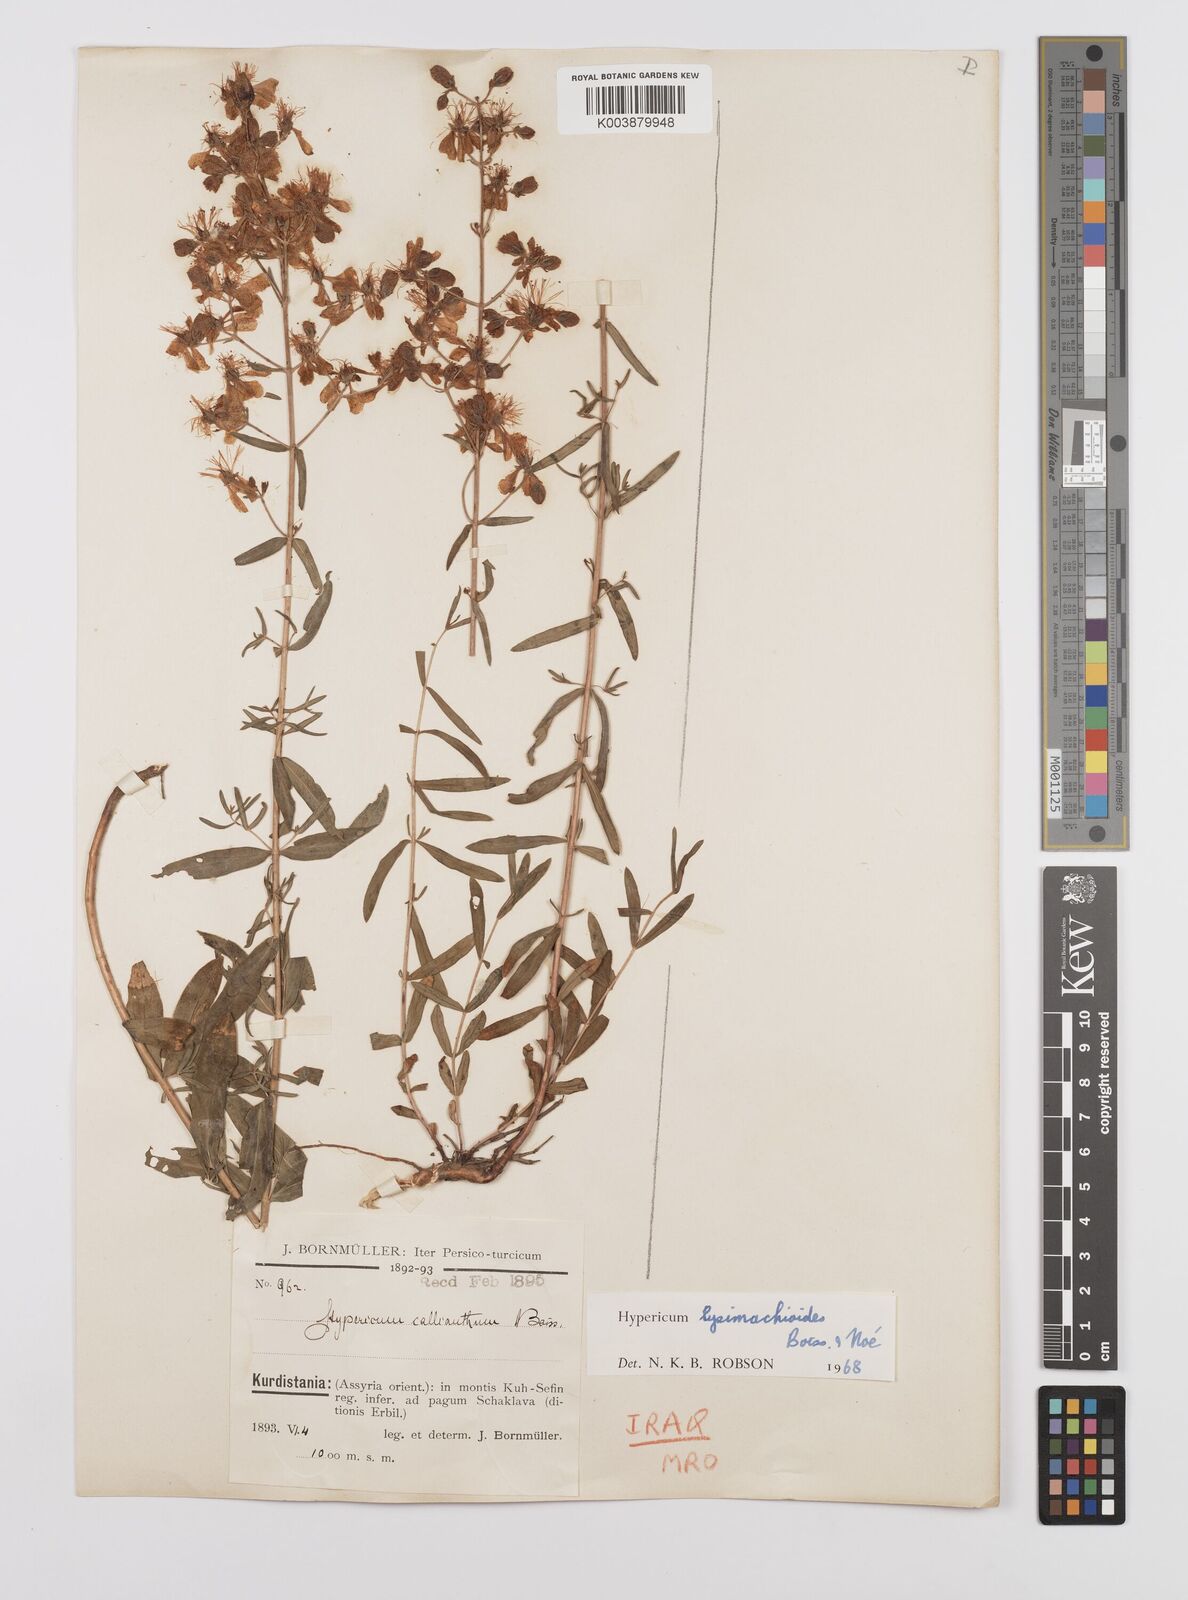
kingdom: Plantae
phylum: Tracheophyta
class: Magnoliopsida
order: Malpighiales
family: Hypericaceae
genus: Hypericum
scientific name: Hypericum lysimachioides
